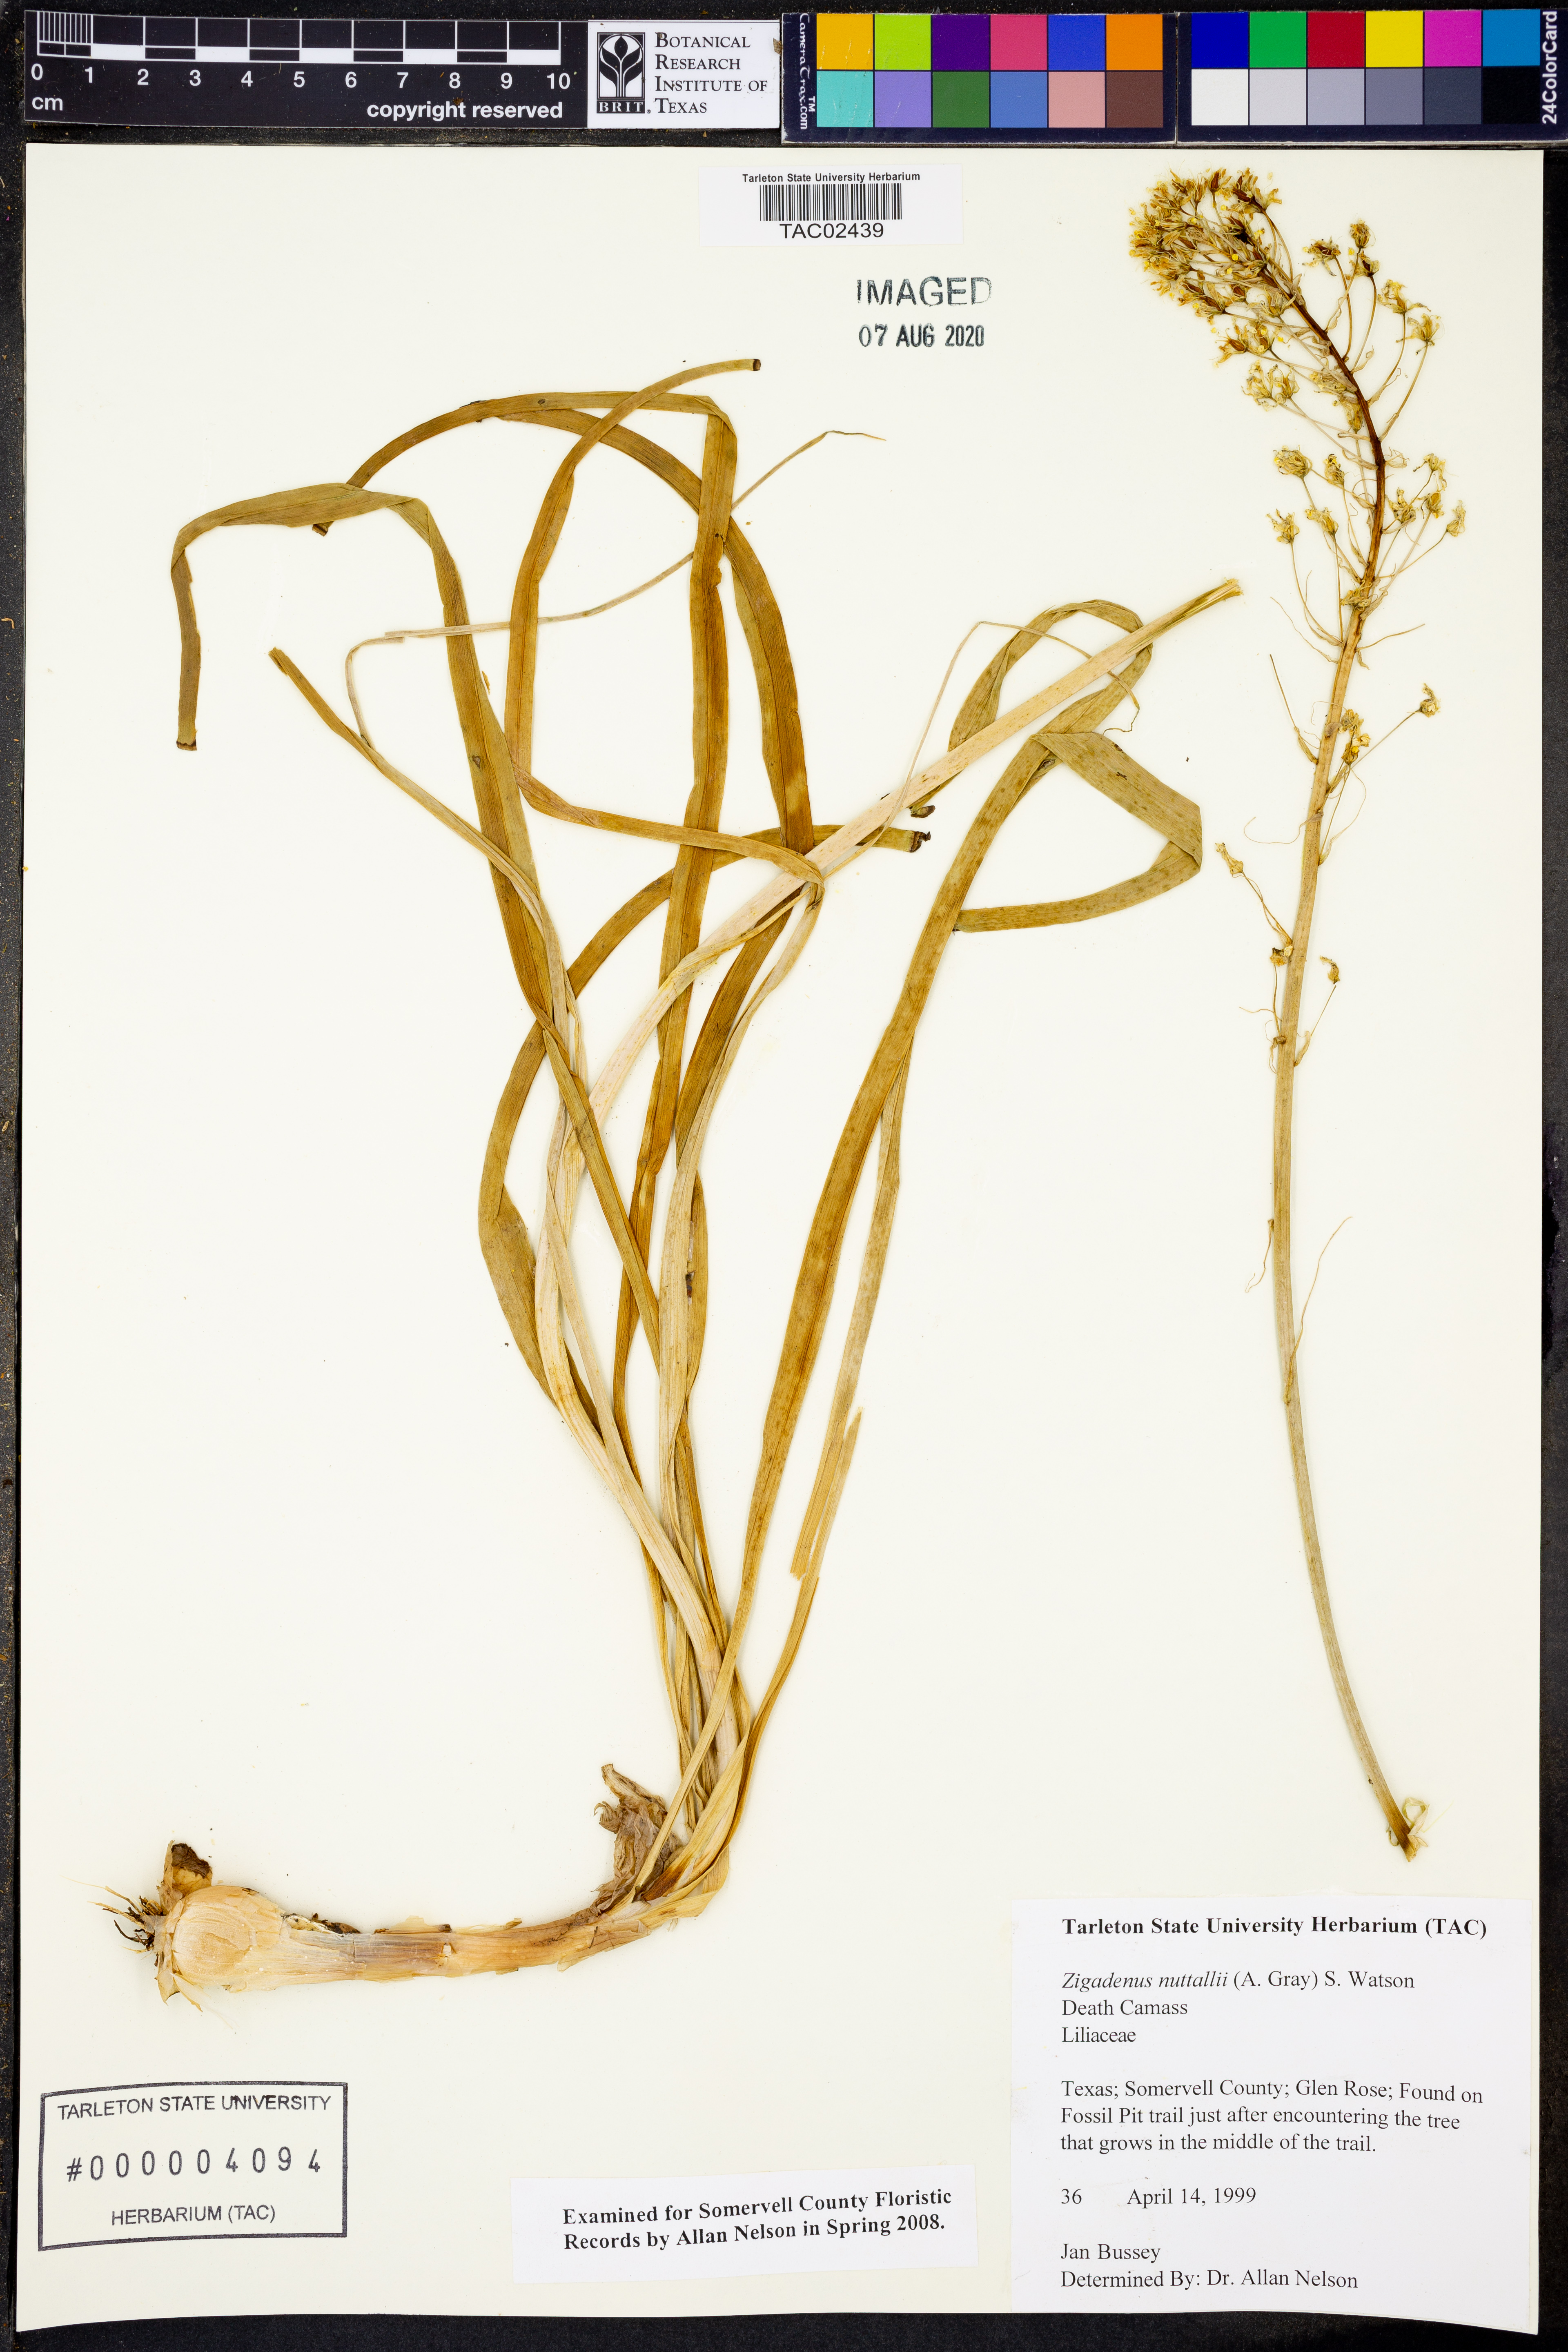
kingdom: Plantae
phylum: Tracheophyta
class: Liliopsida
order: Liliales
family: Melanthiaceae
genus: Toxicoscordion
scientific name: Toxicoscordion nuttallii
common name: Poison sego
